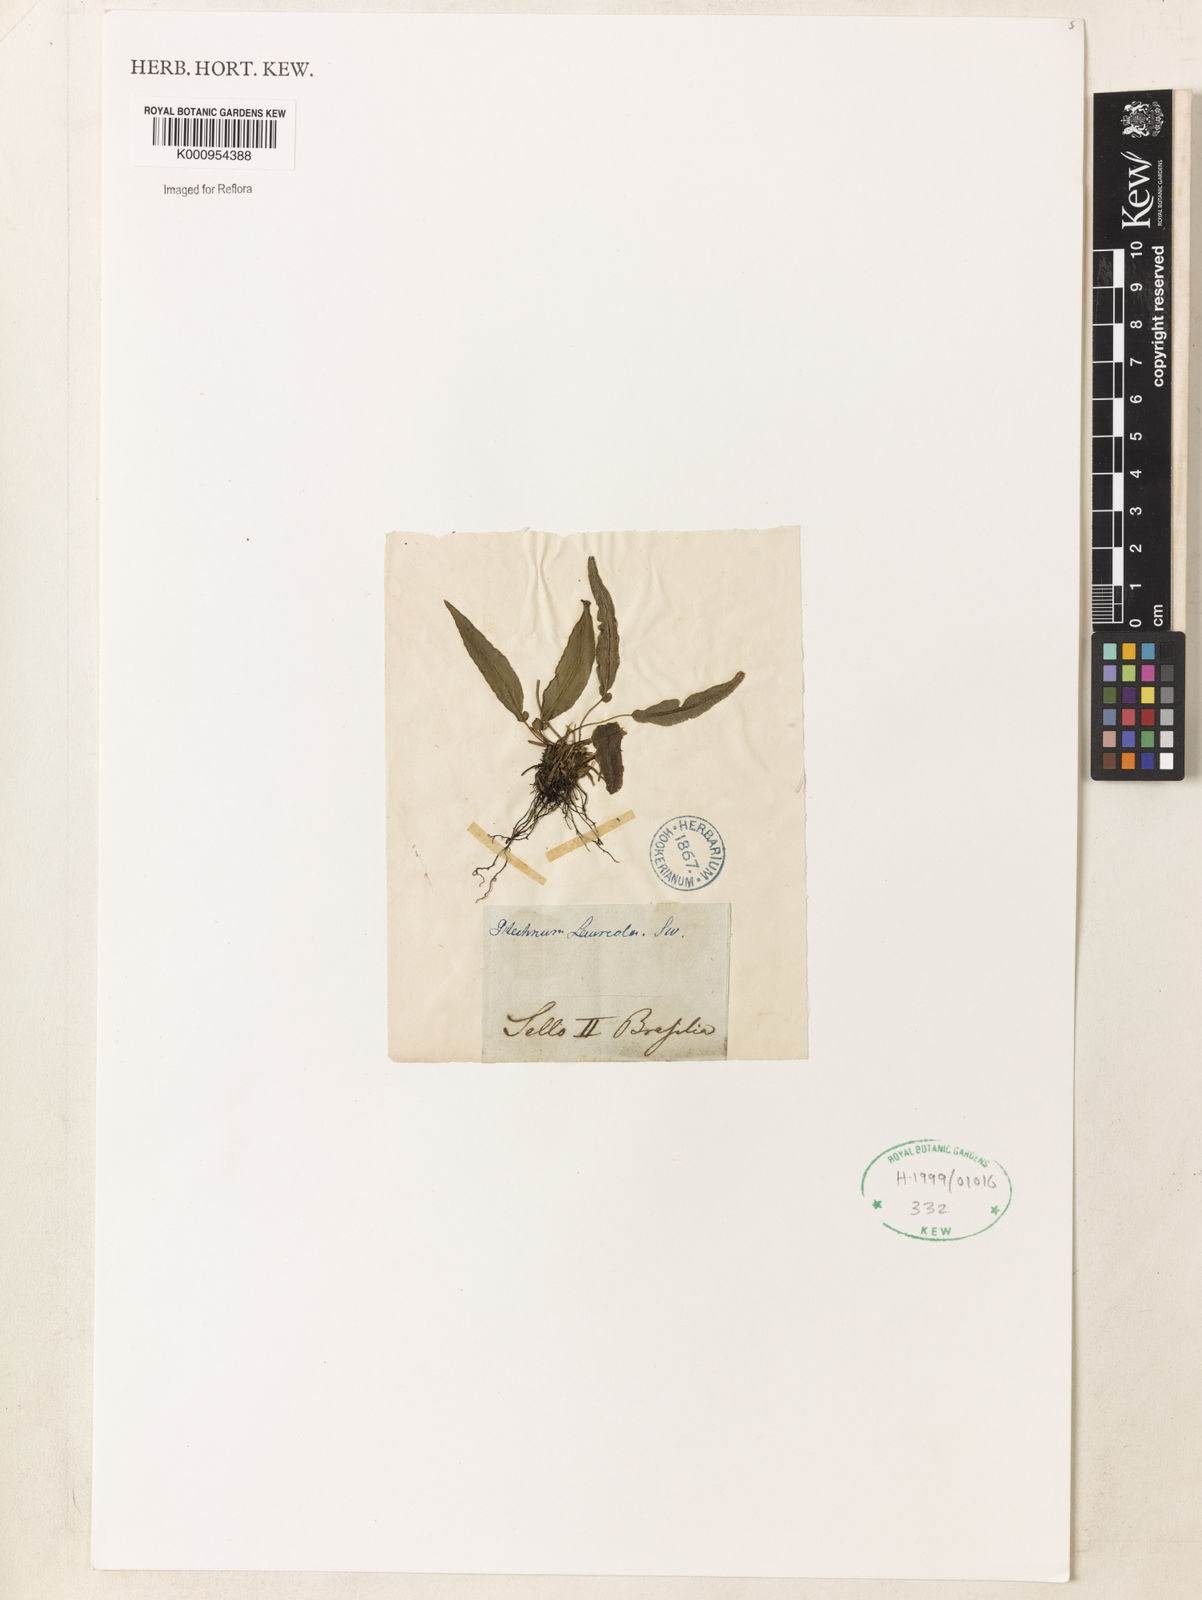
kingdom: Plantae
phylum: Tracheophyta
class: Polypodiopsida
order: Polypodiales
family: Blechnaceae
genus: Blechnum
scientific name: Blechnum lanceola
